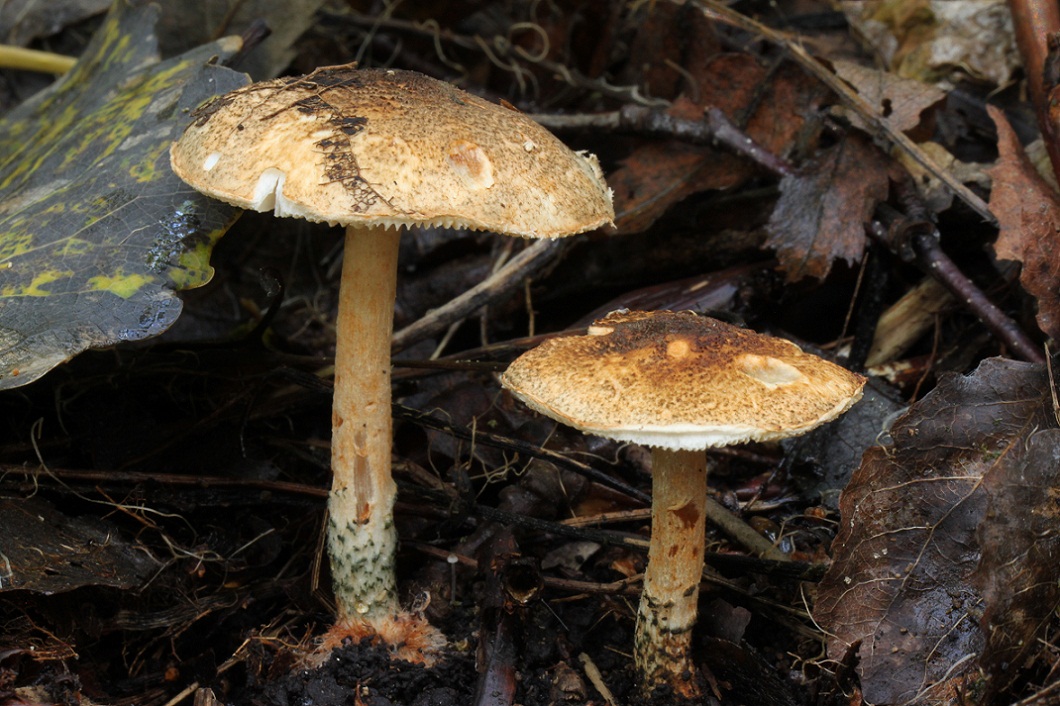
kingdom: Fungi
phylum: Basidiomycota
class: Agaricomycetes
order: Agaricales
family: Agaricaceae
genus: Lepiota
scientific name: Lepiota grangei
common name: grønskællet parasolhat
